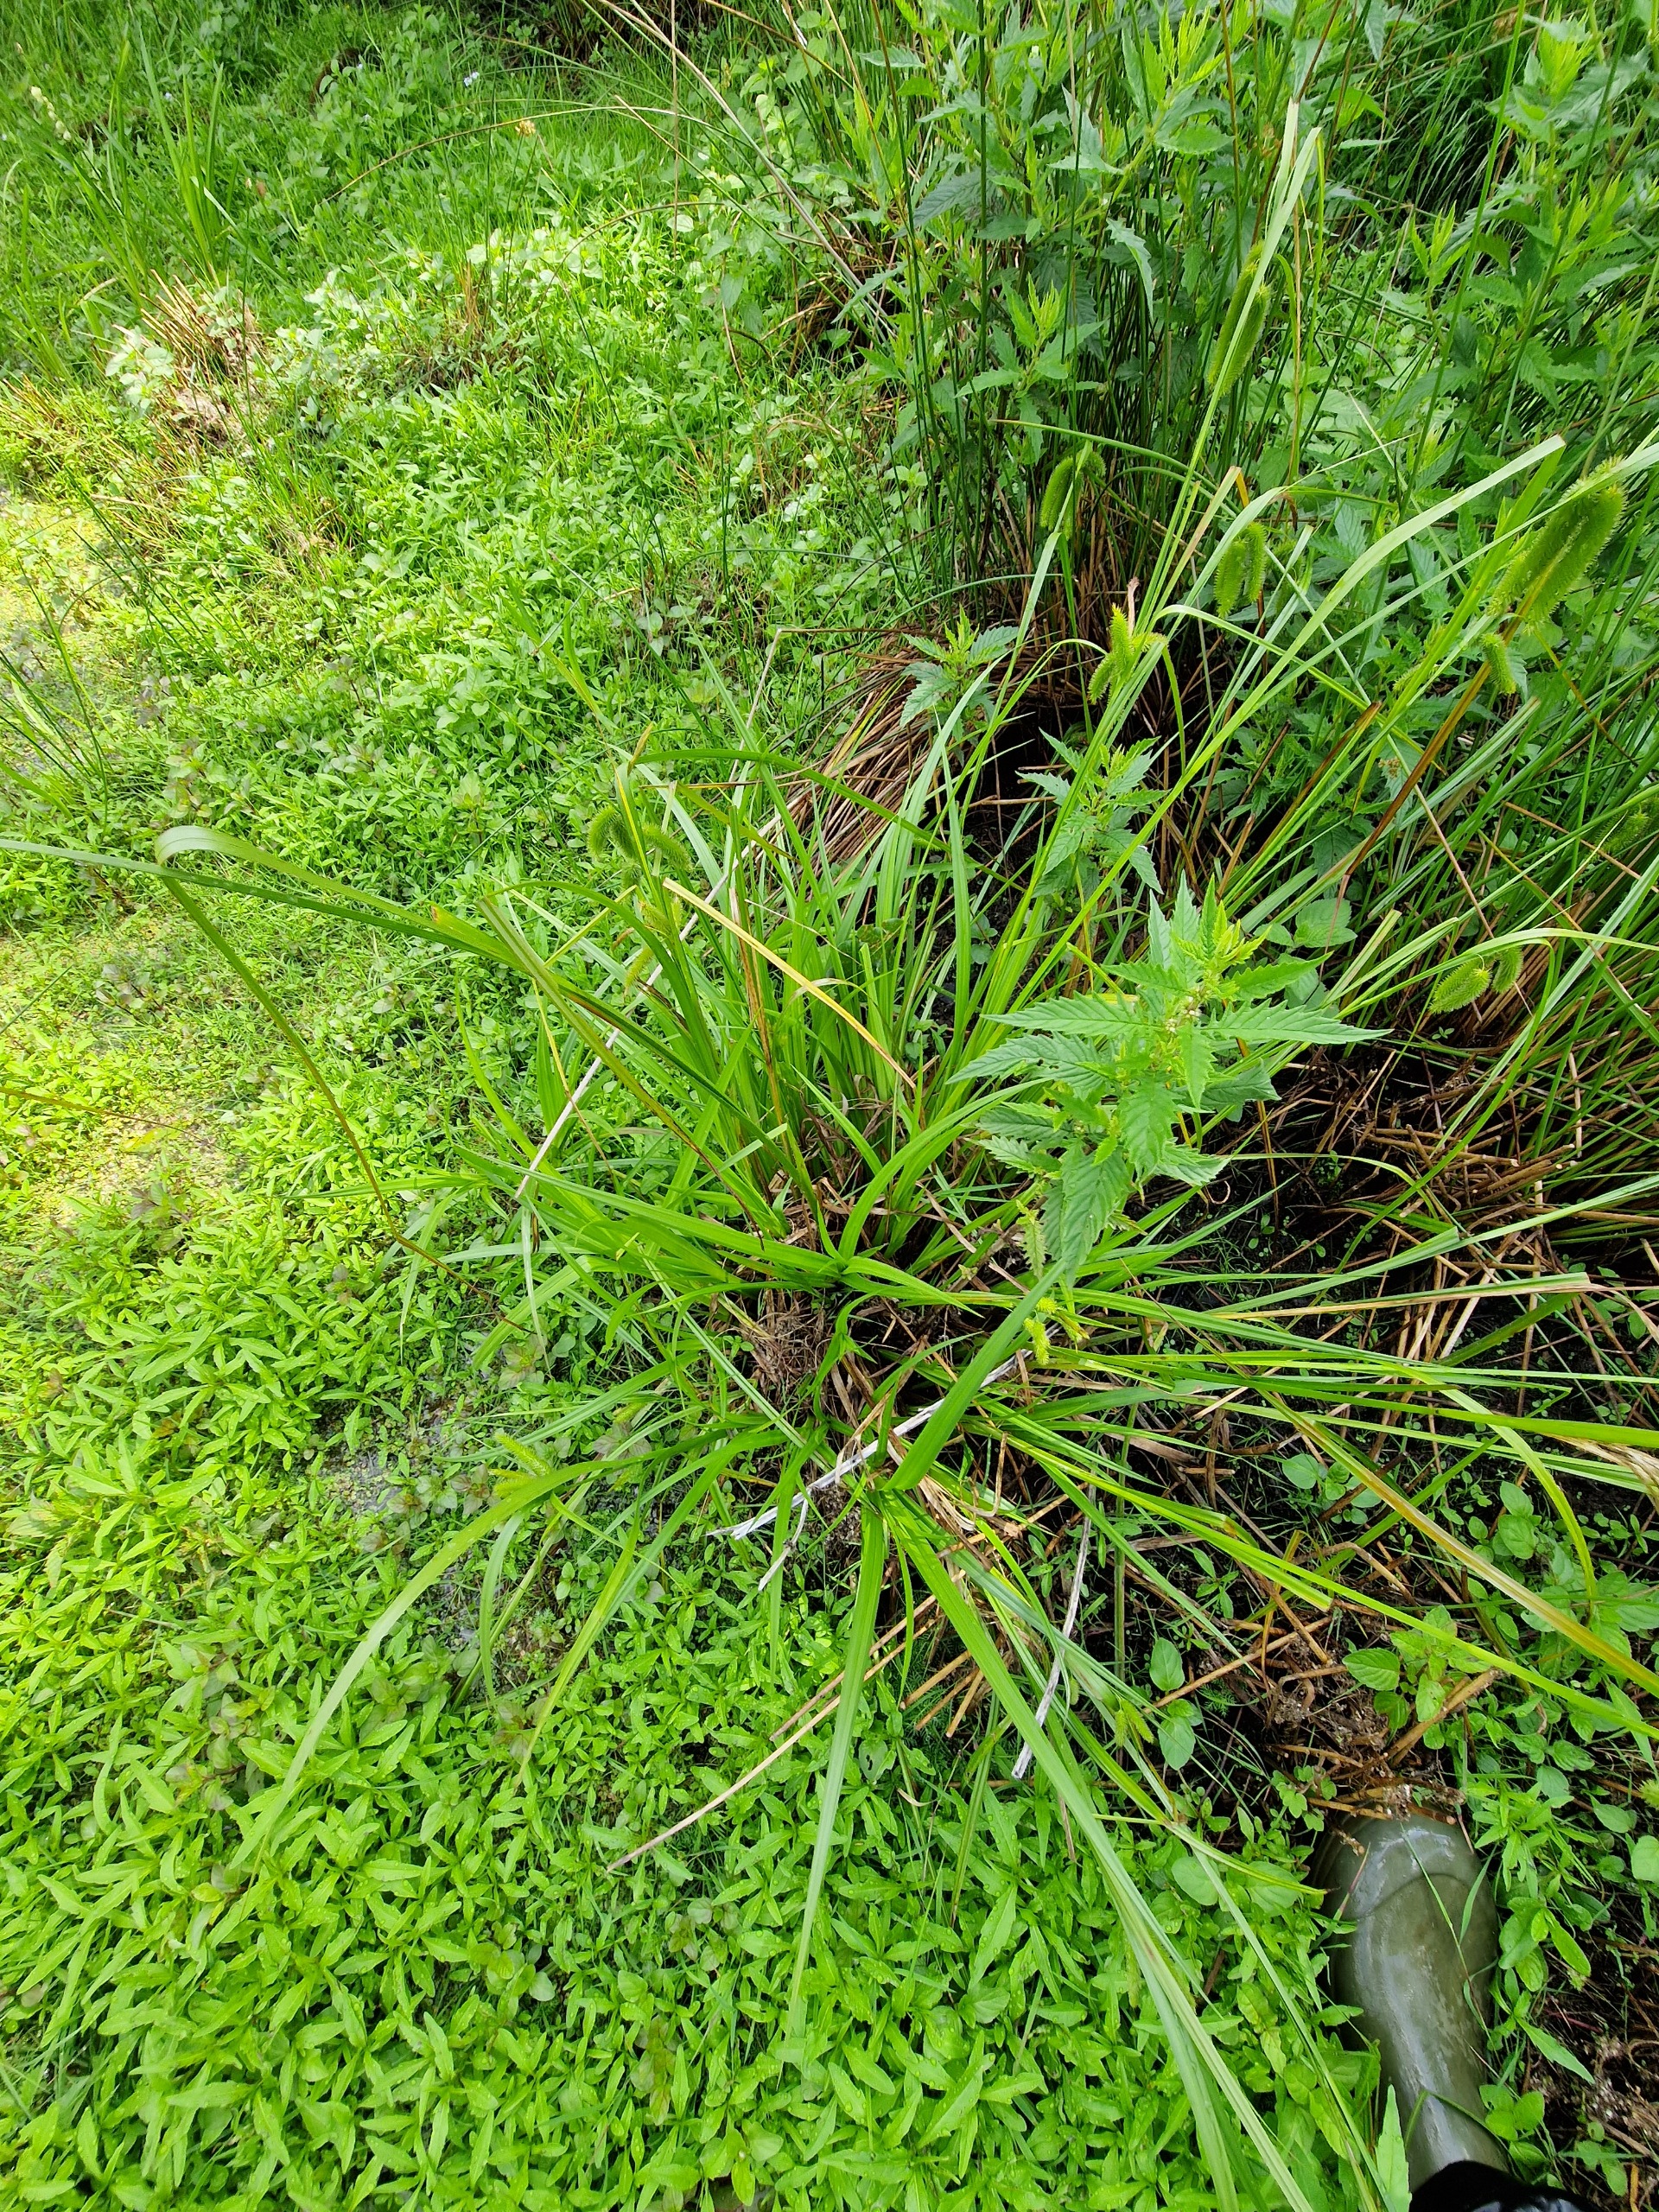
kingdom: Plantae
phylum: Tracheophyta
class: Liliopsida
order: Poales
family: Cyperaceae
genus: Carex
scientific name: Carex pseudocyperus
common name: Knippe-star
